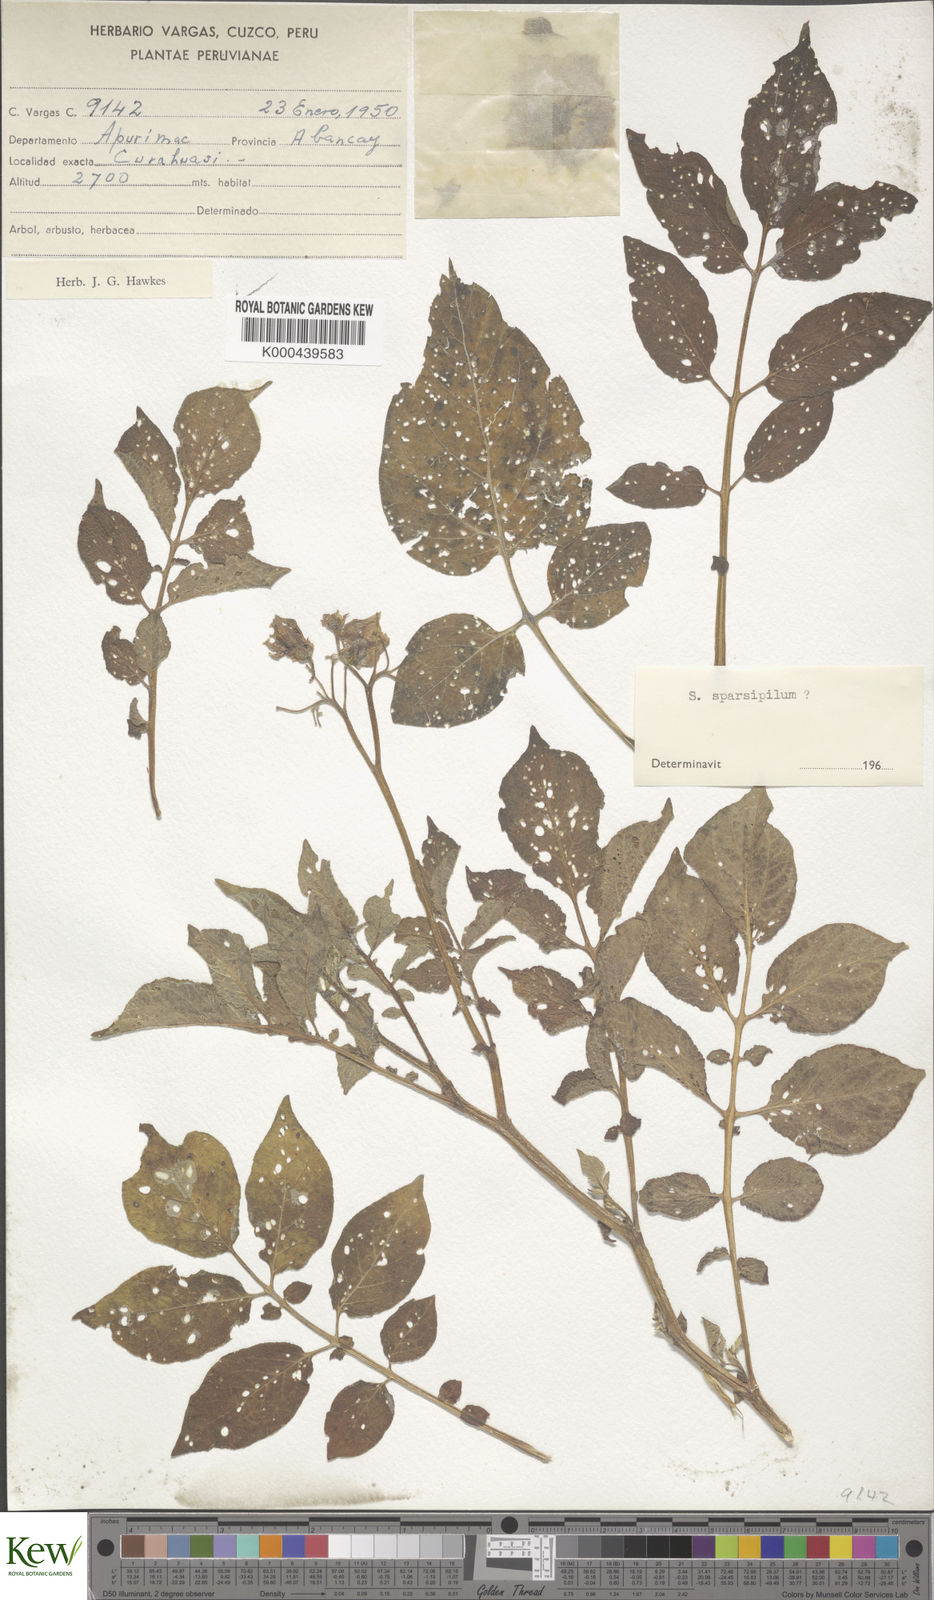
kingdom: Plantae
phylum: Tracheophyta
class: Magnoliopsida
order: Solanales
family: Solanaceae
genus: Solanum
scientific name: Solanum brevicaule
